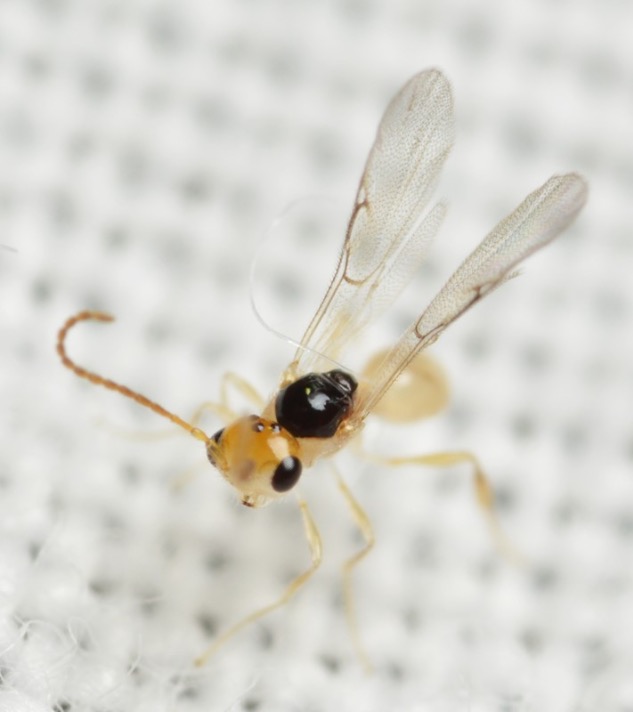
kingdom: Animalia
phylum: Arthropoda
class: Insecta
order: Hymenoptera
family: Diapriidae
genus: Ismarus
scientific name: Ismarus dorsiger
